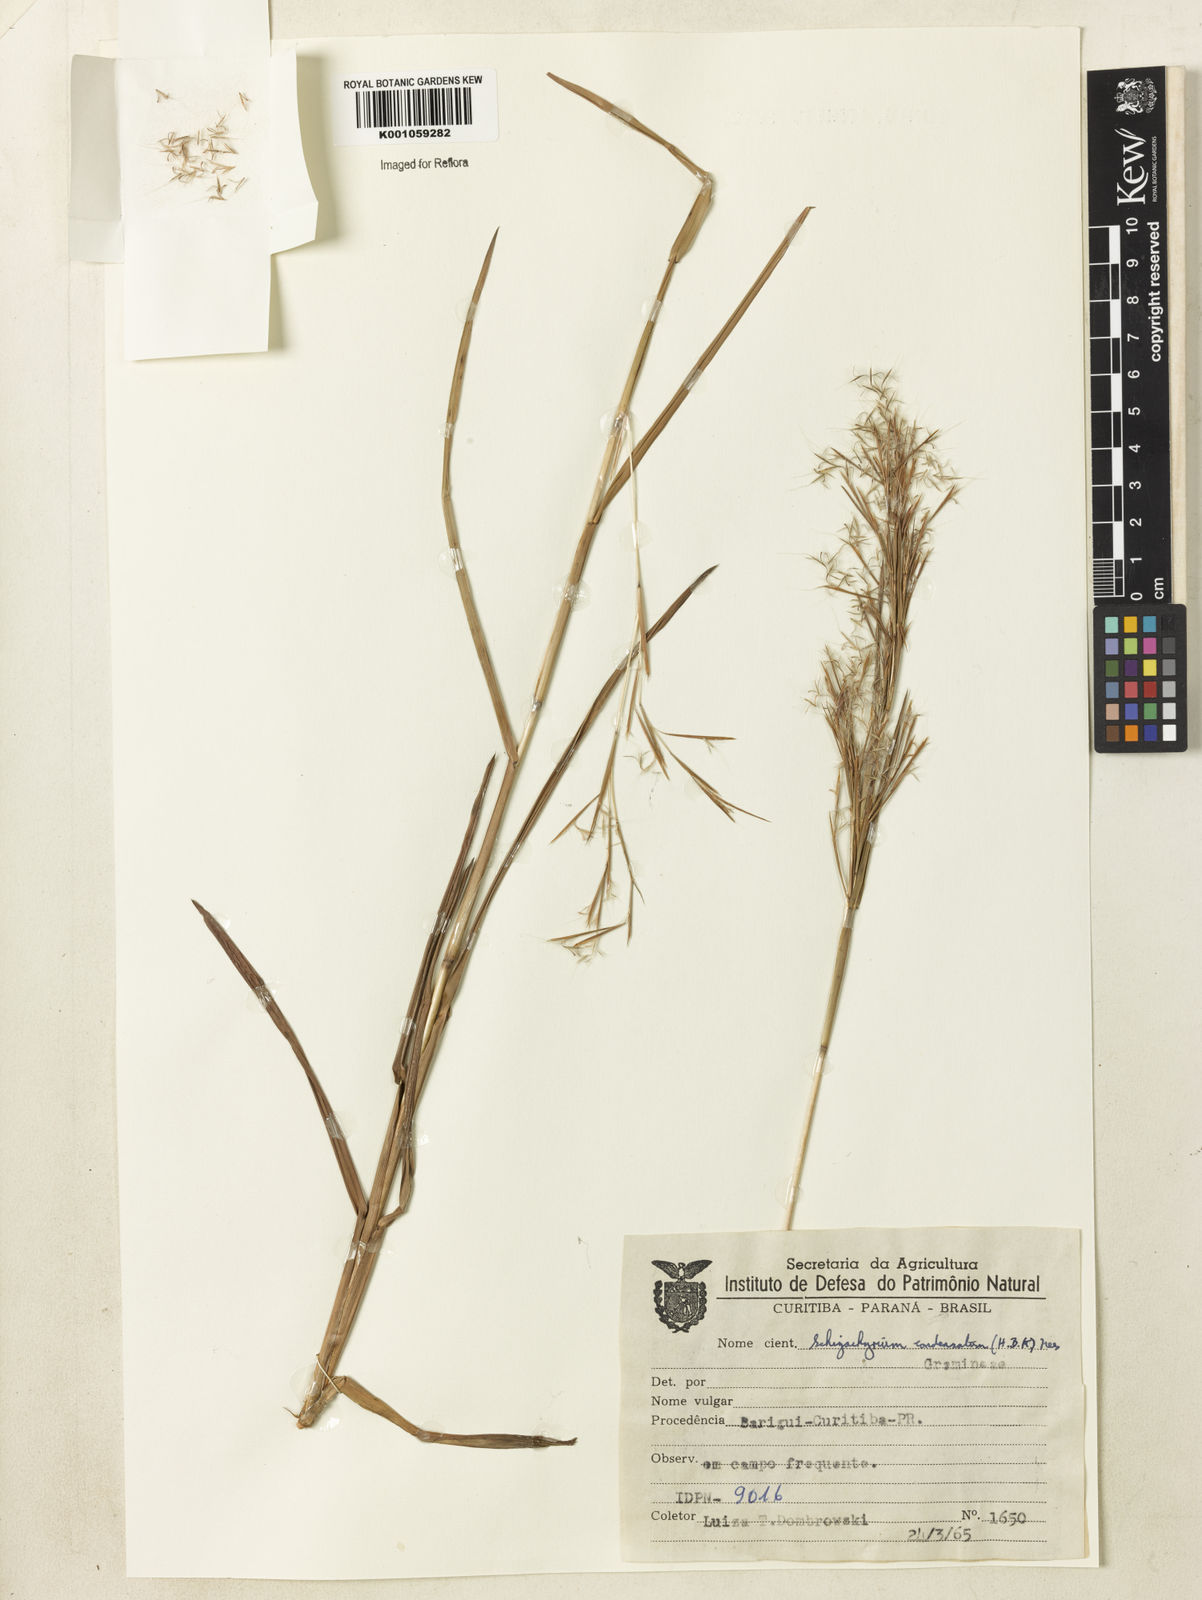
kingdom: Plantae
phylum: Tracheophyta
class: Liliopsida
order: Poales
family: Poaceae
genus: Schizachyrium
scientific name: Schizachyrium
